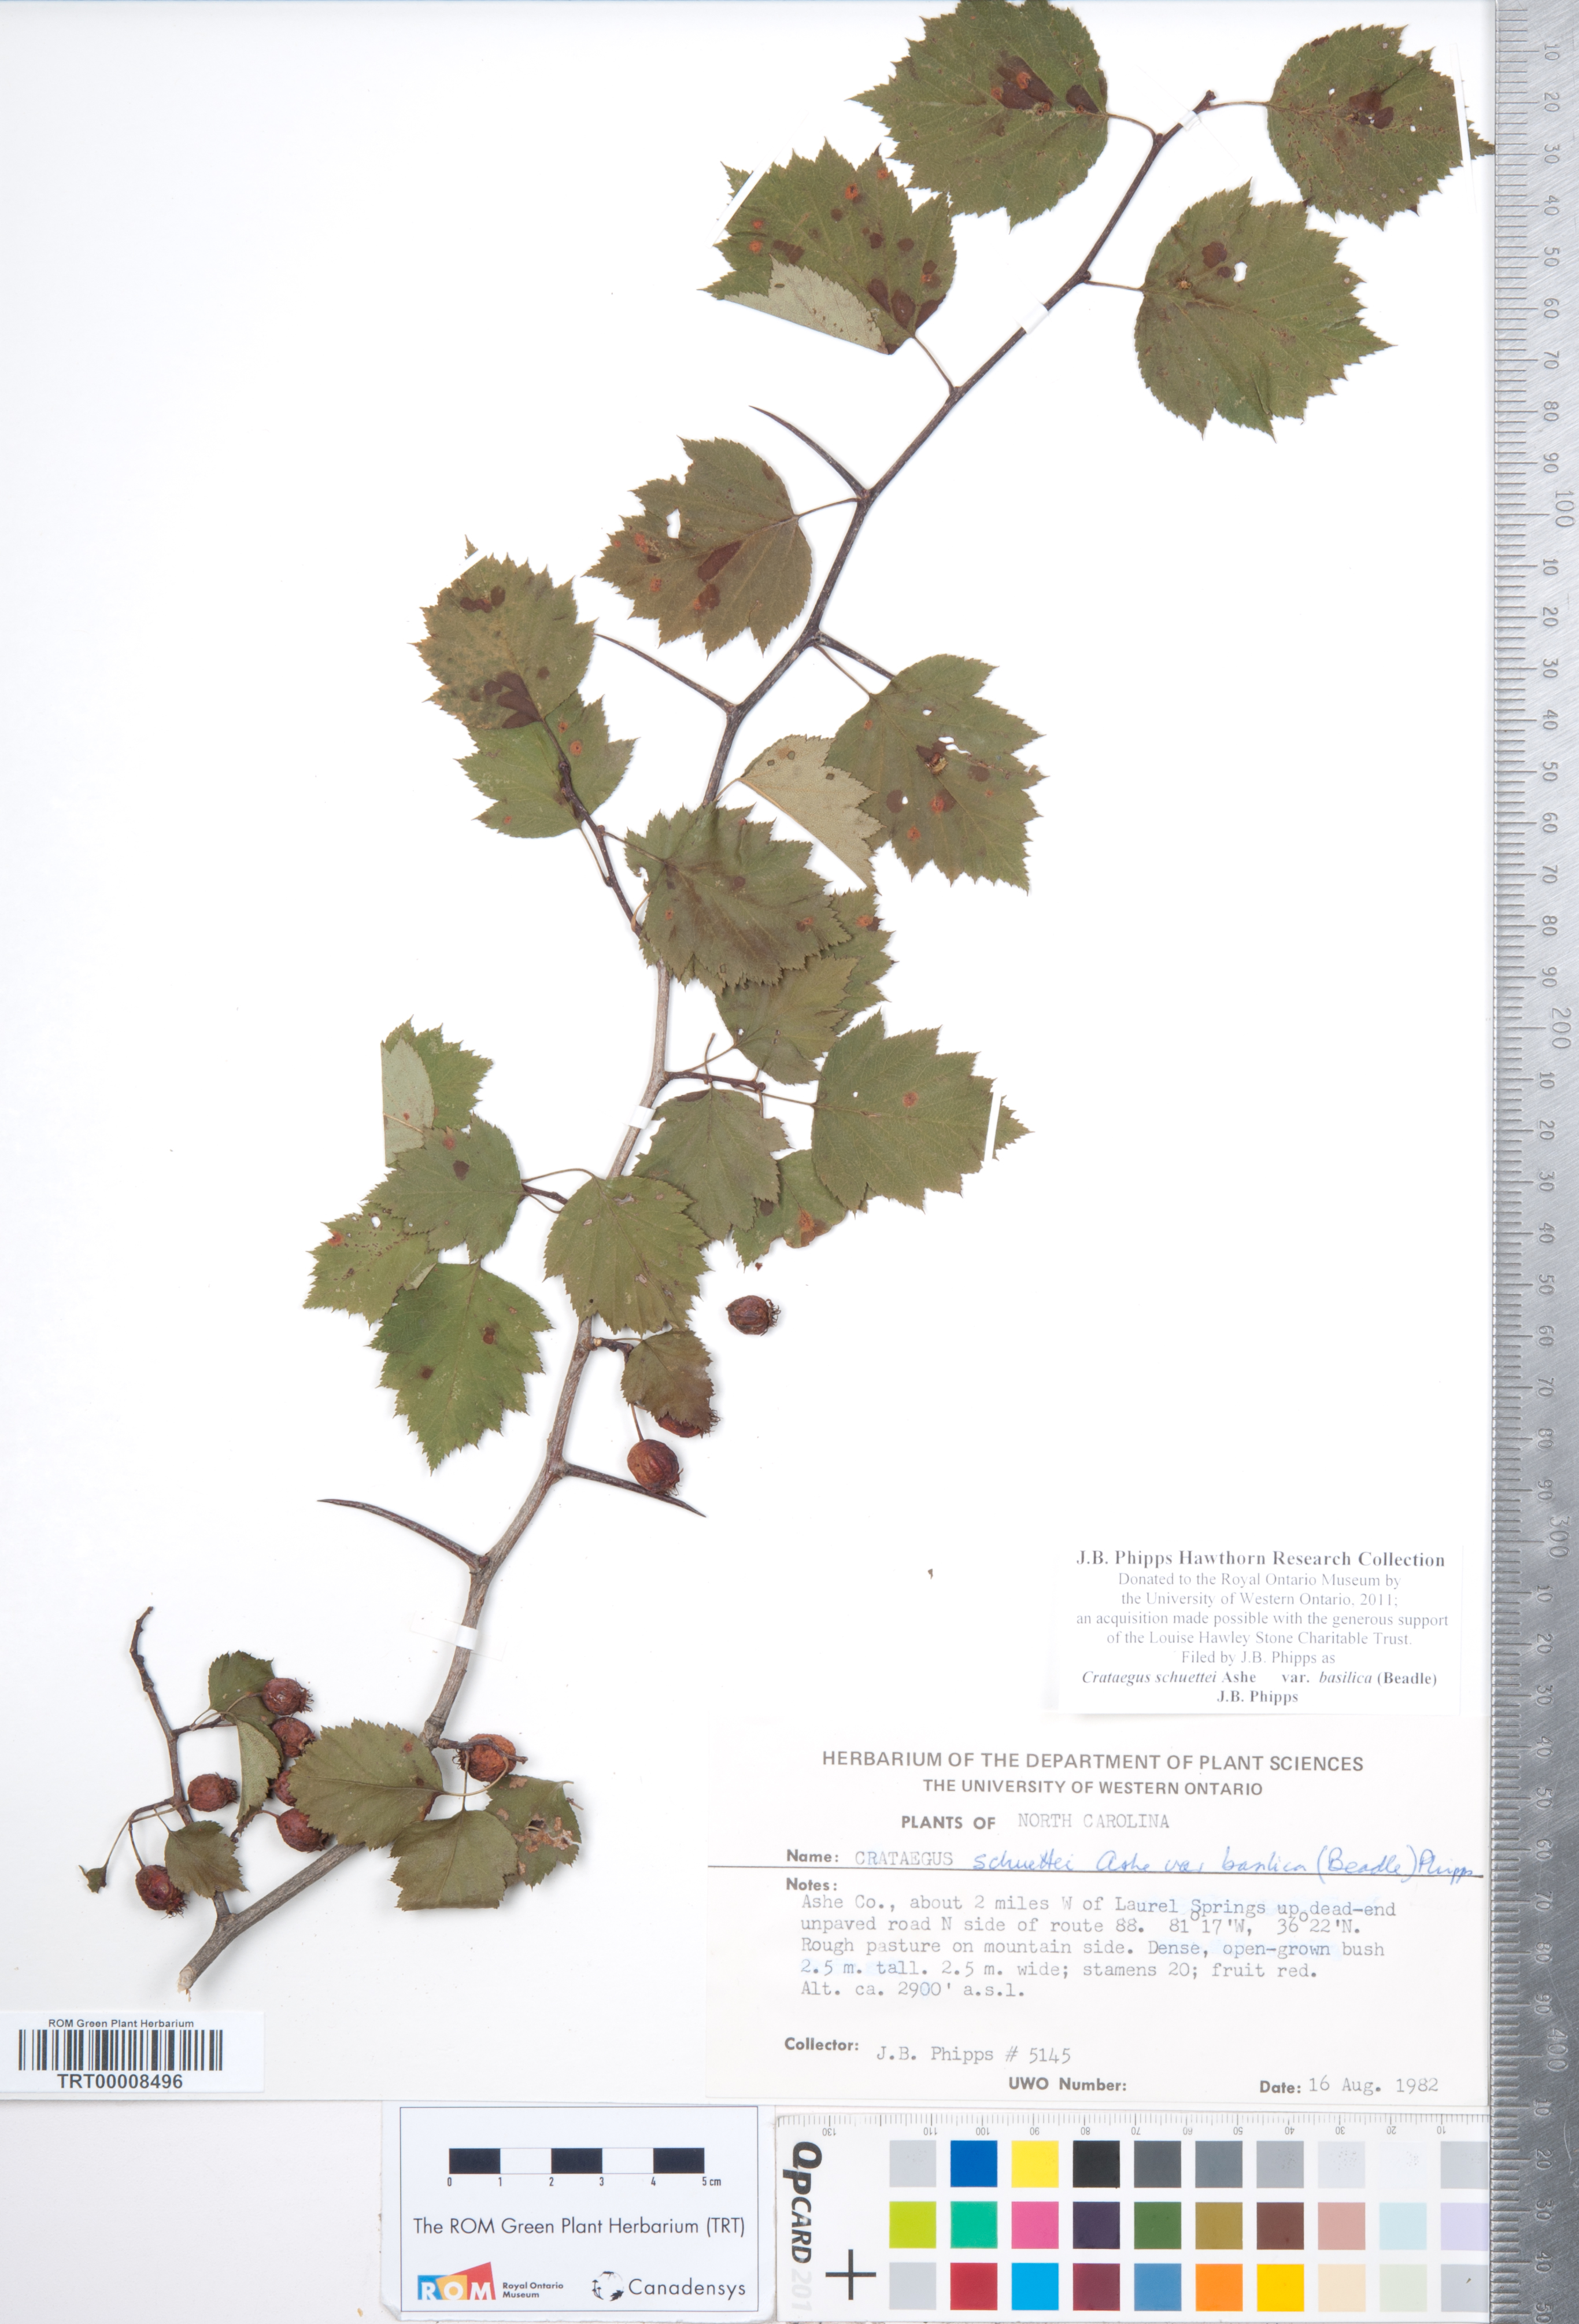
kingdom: Plantae
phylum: Tracheophyta
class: Magnoliopsida
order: Rosales
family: Rosaceae
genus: Crataegus
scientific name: Crataegus schuettei
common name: Schuette's hawthorn
